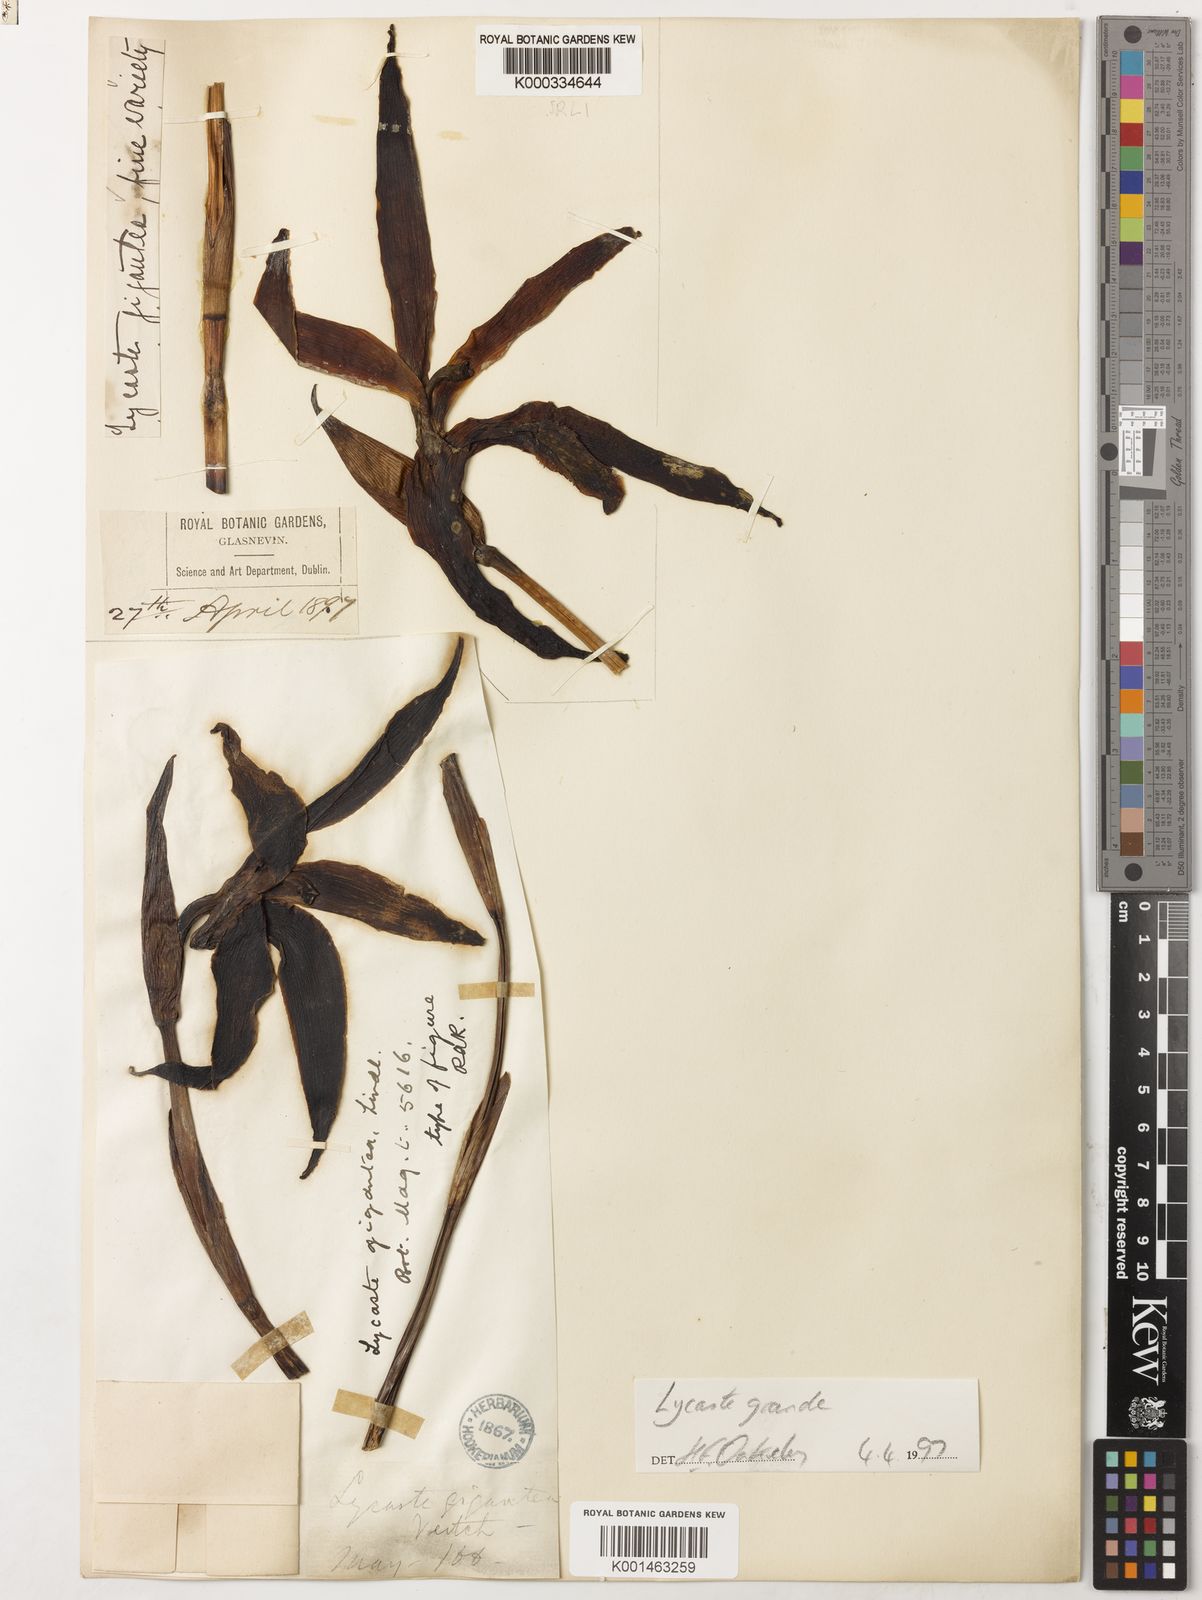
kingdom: Plantae
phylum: Tracheophyta
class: Liliopsida
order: Asparagales
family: Orchidaceae
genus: Ida
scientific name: Ida gigantea
